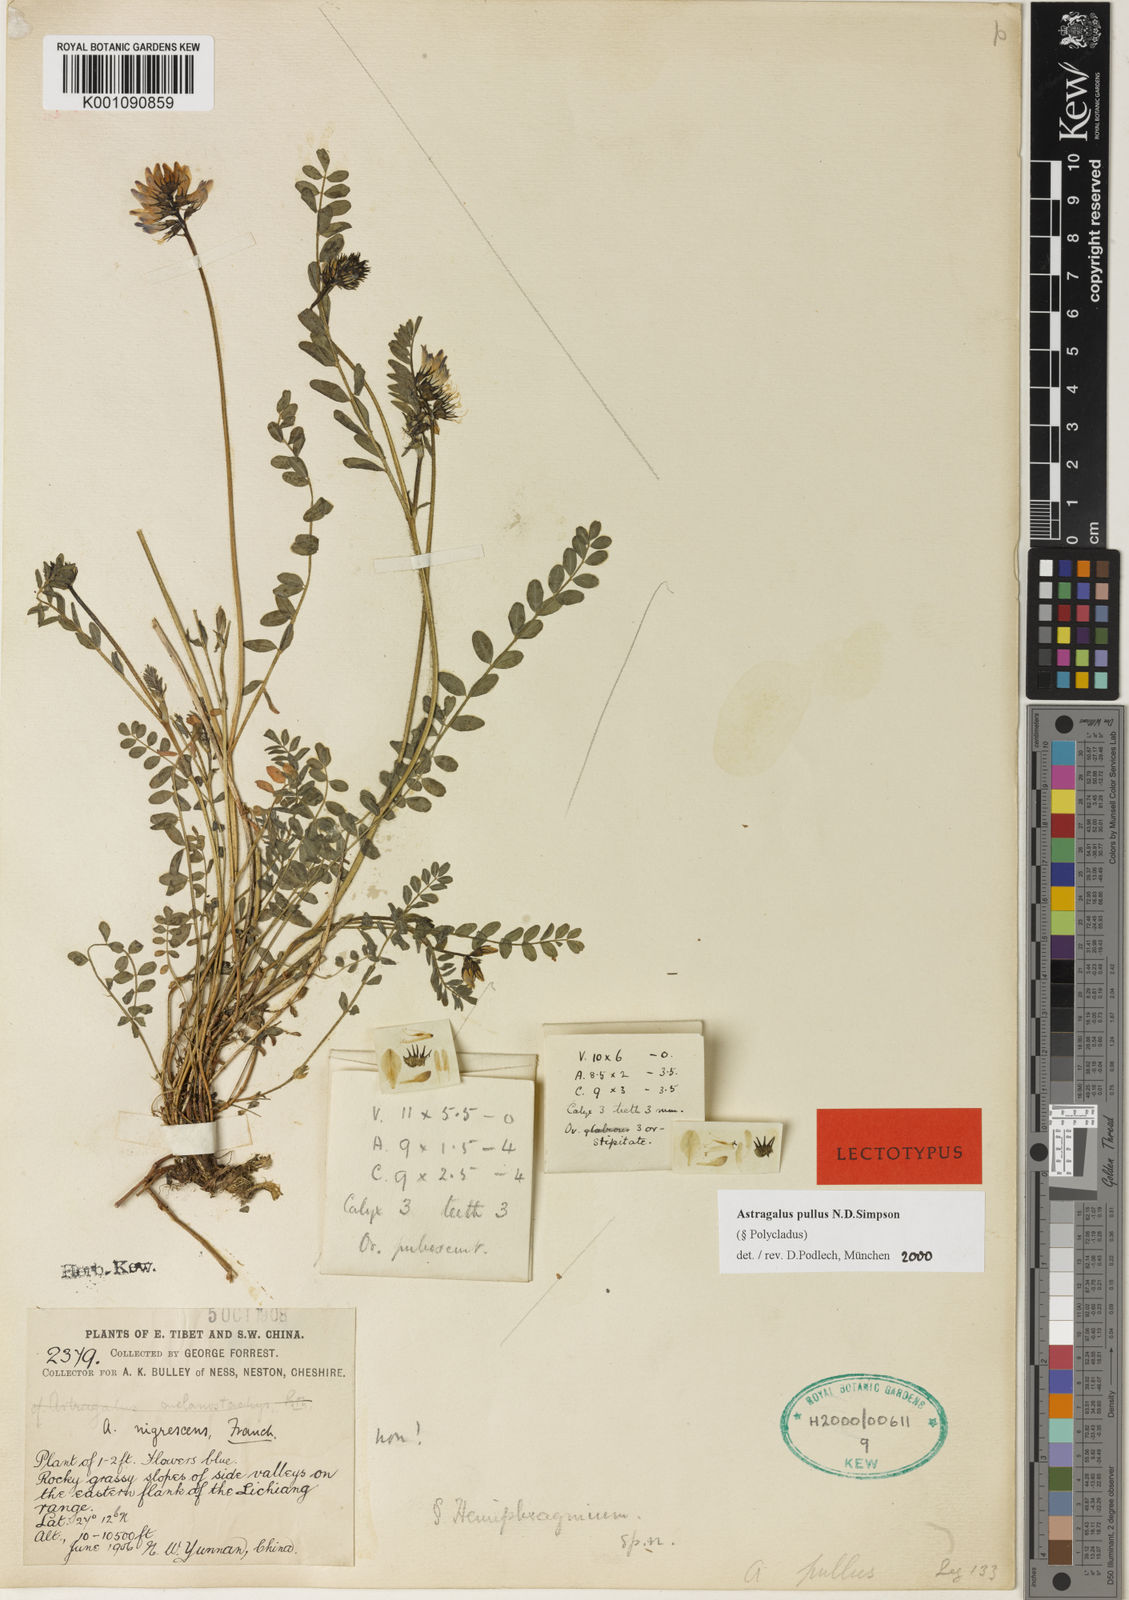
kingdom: Plantae
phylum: Tracheophyta
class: Magnoliopsida
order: Fabales
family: Fabaceae
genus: Astragalus
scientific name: Astragalus
